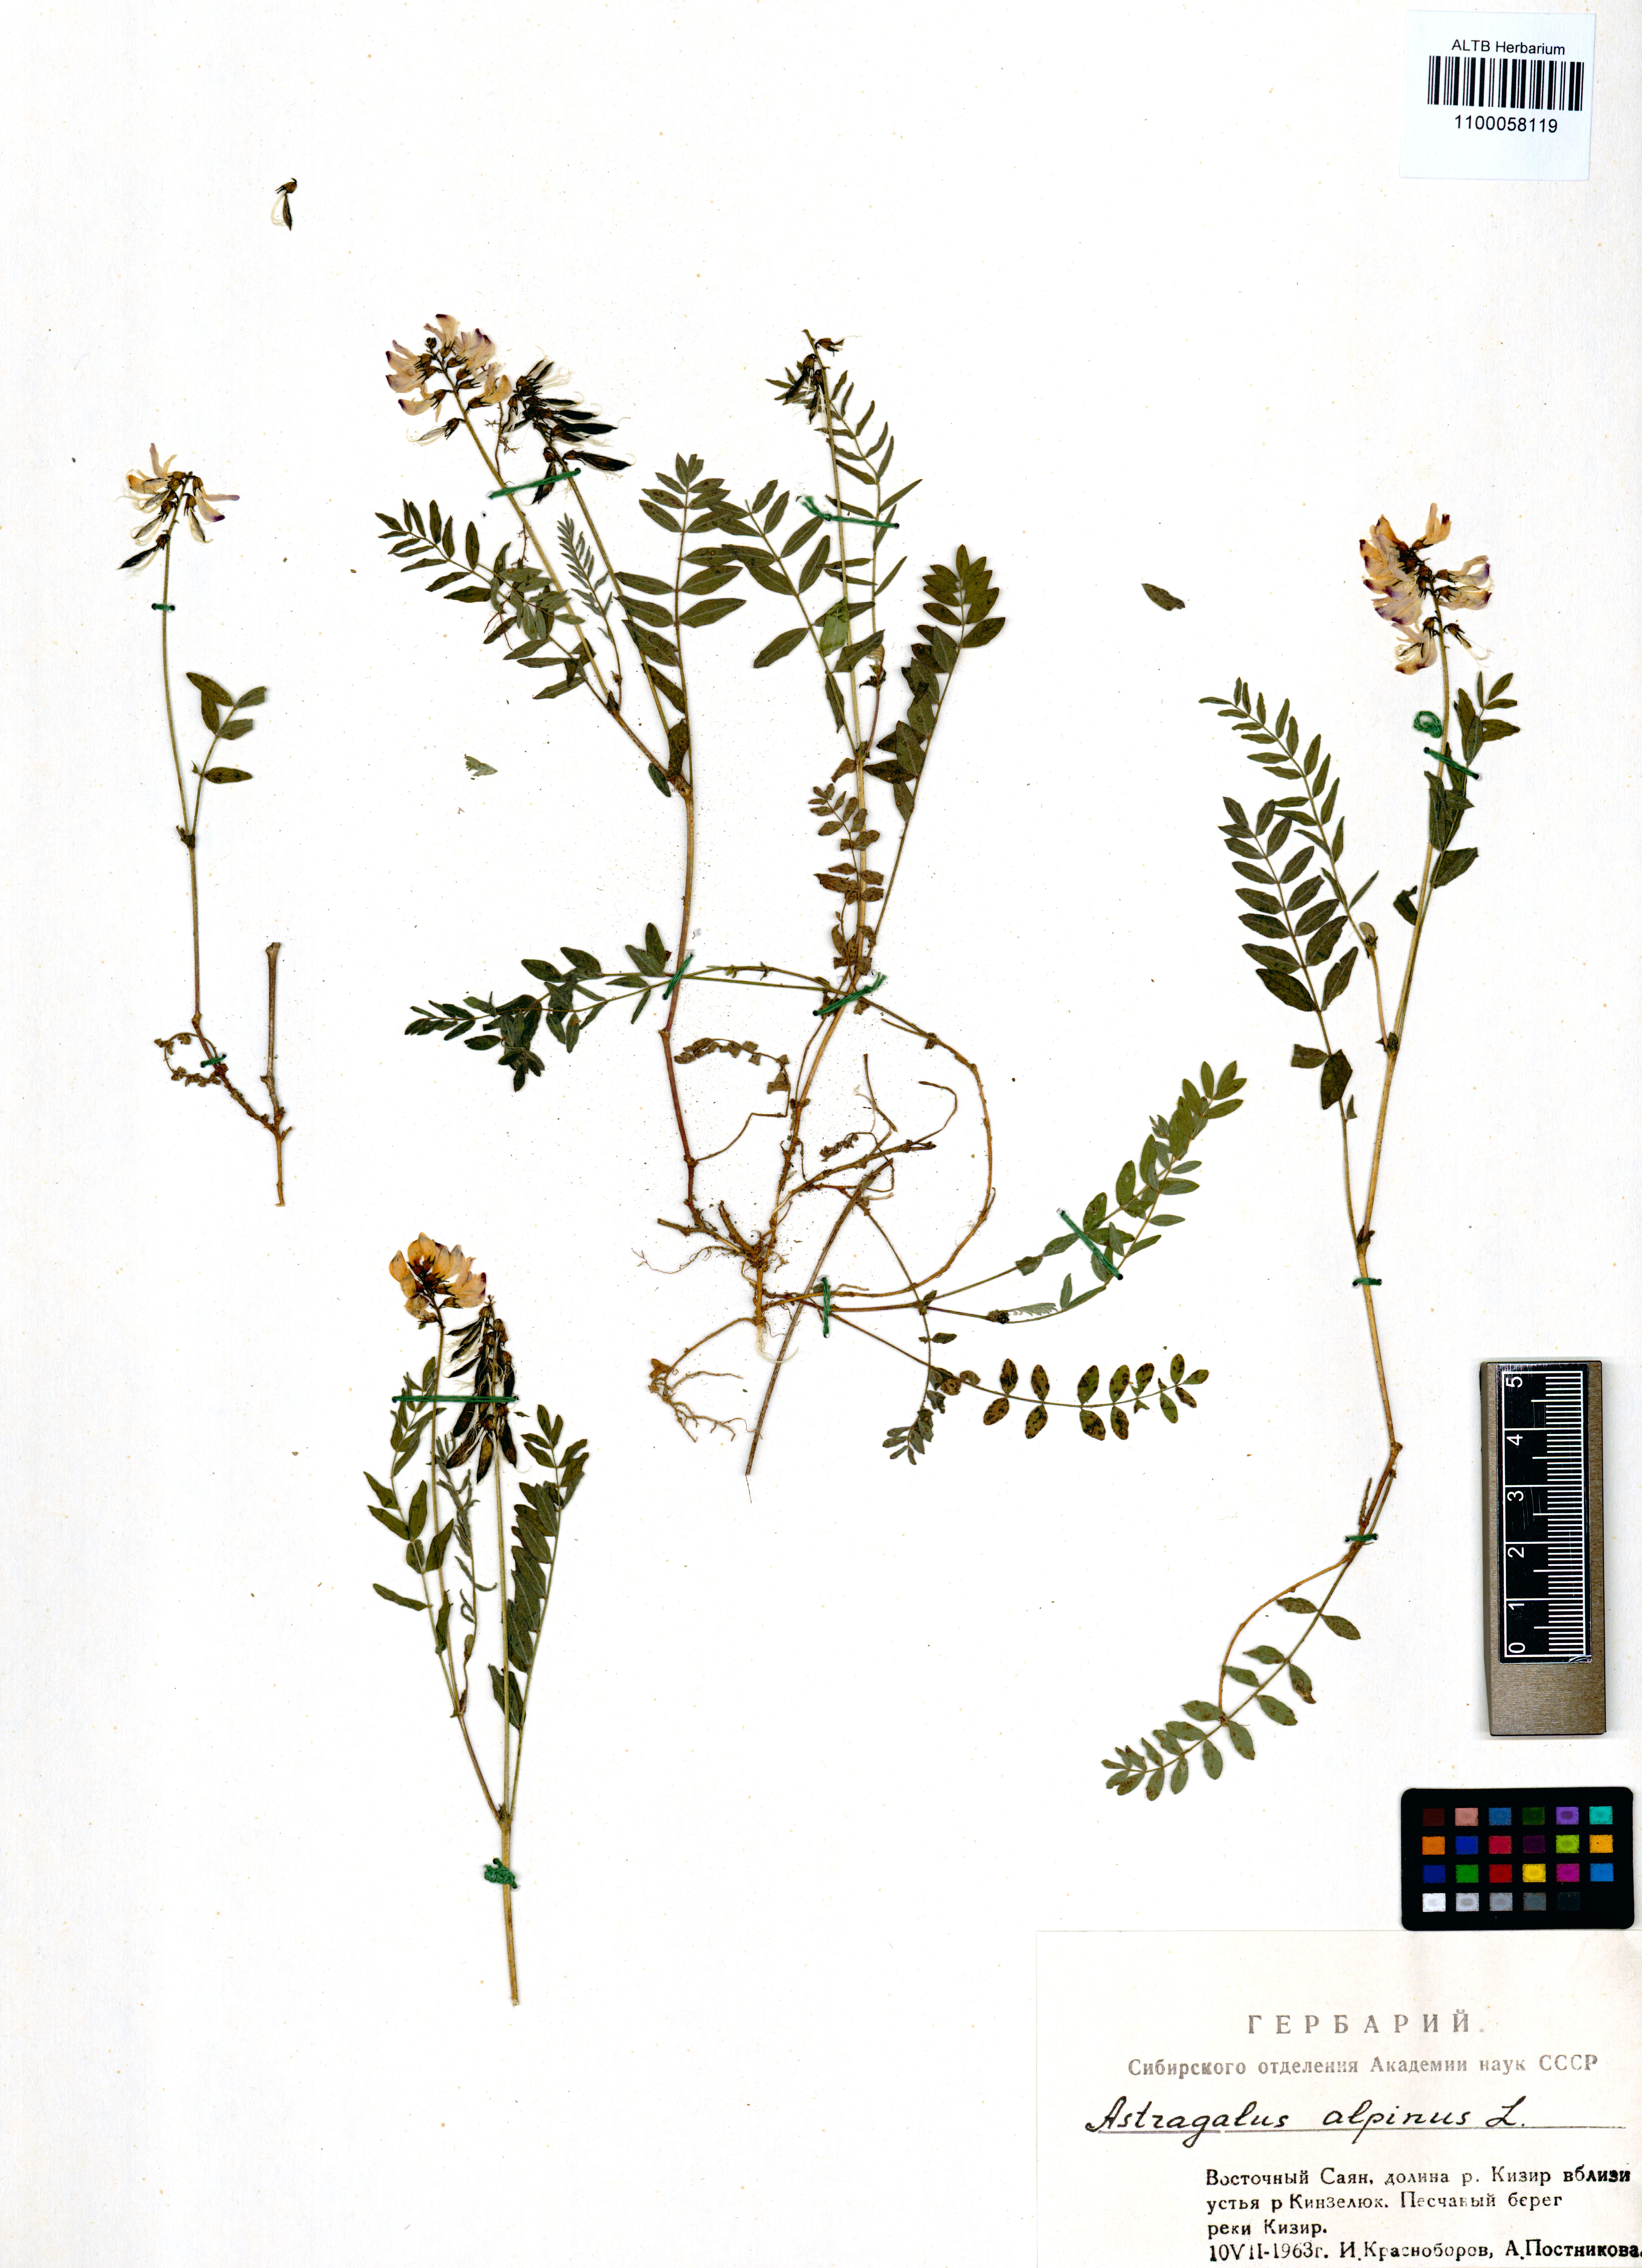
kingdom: Plantae
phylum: Tracheophyta
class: Magnoliopsida
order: Fabales
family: Fabaceae
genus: Astragalus
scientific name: Astragalus alpinus
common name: Alpine milk-vetch
